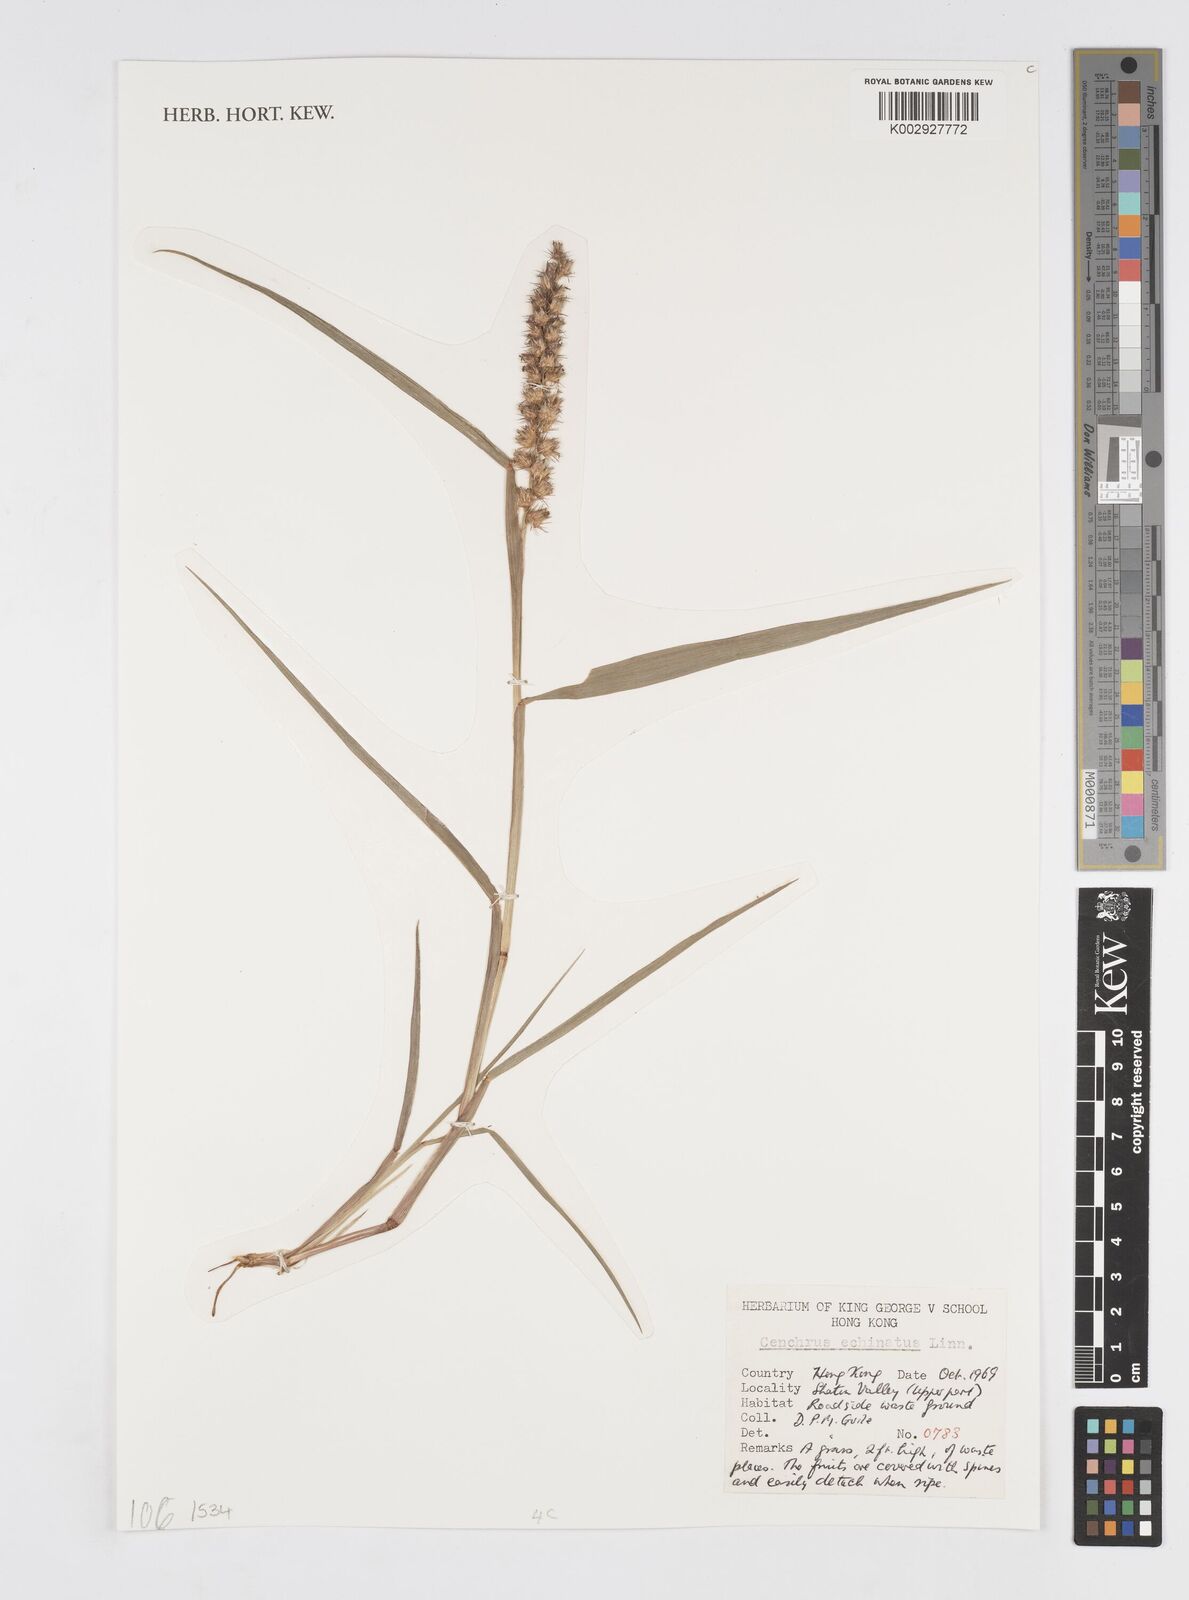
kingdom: Plantae
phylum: Tracheophyta
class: Liliopsida
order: Poales
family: Poaceae
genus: Cenchrus
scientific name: Cenchrus echinatus
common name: Southern sandbur
